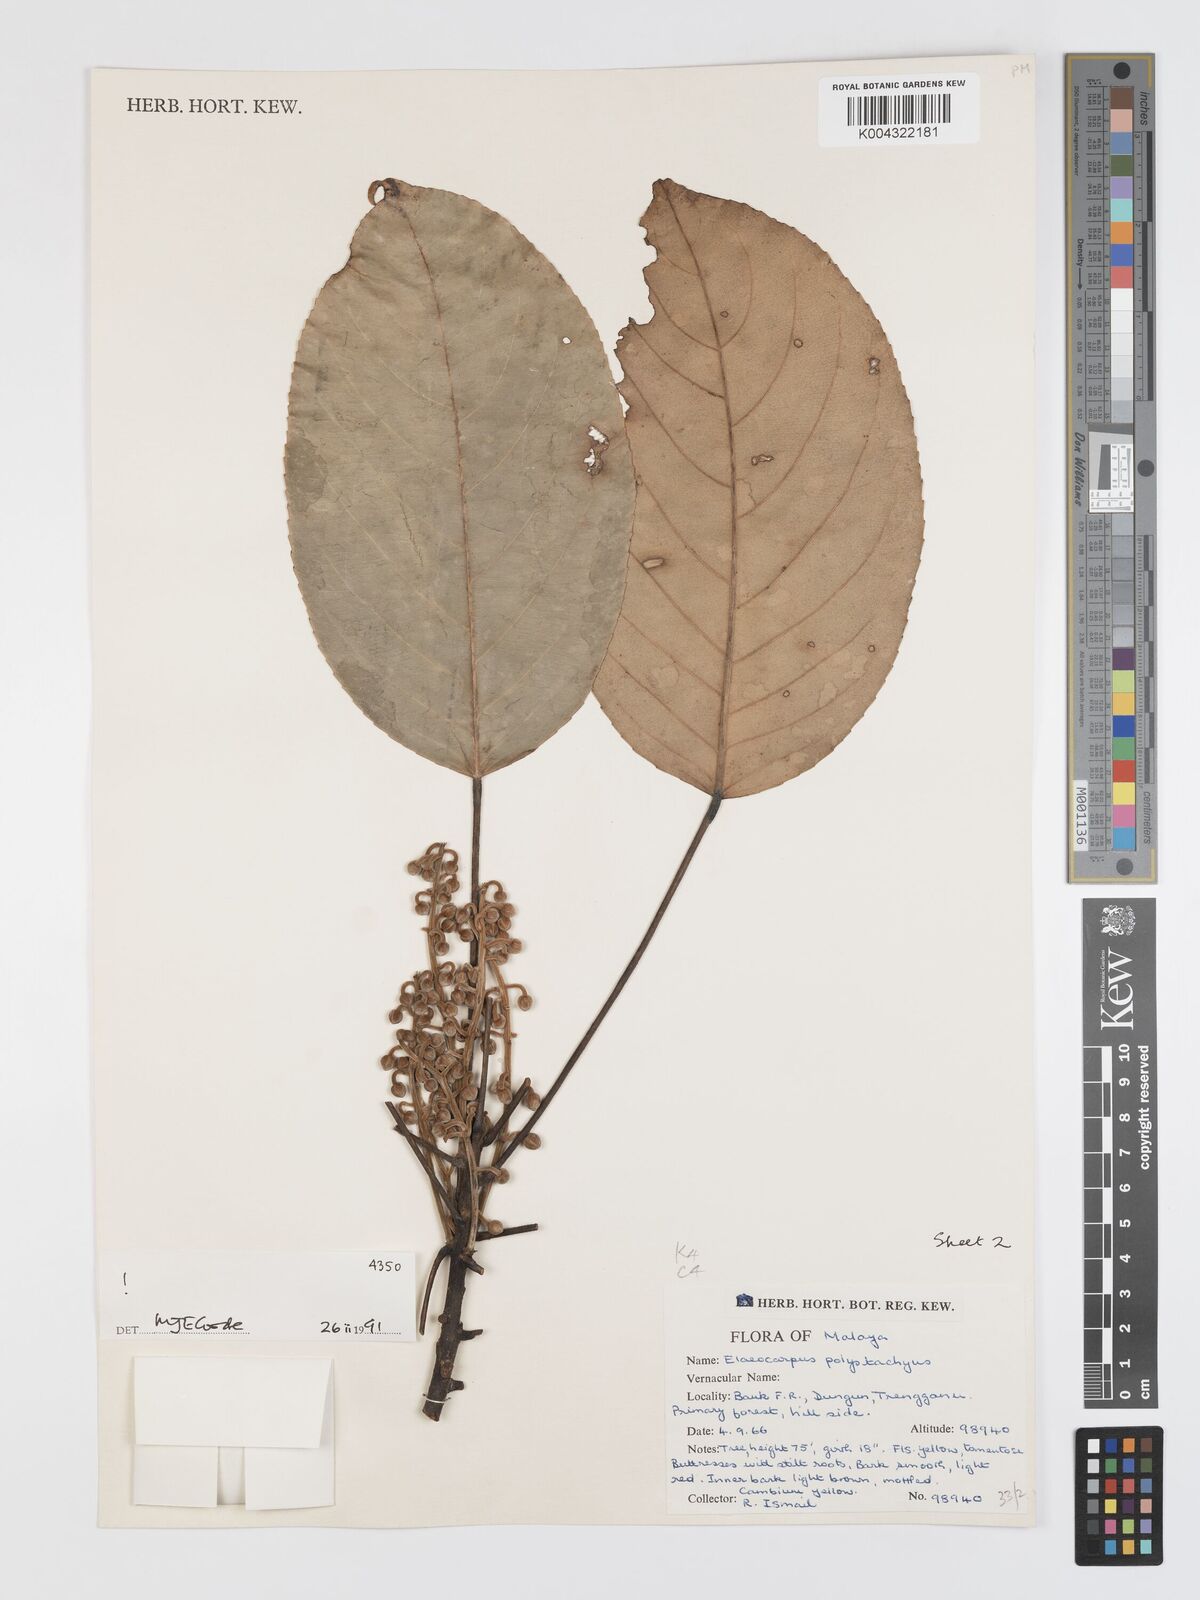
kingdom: Plantae
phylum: Tracheophyta
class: Magnoliopsida
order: Oxalidales
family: Elaeocarpaceae
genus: Elaeocarpus
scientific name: Elaeocarpus polystachyus
